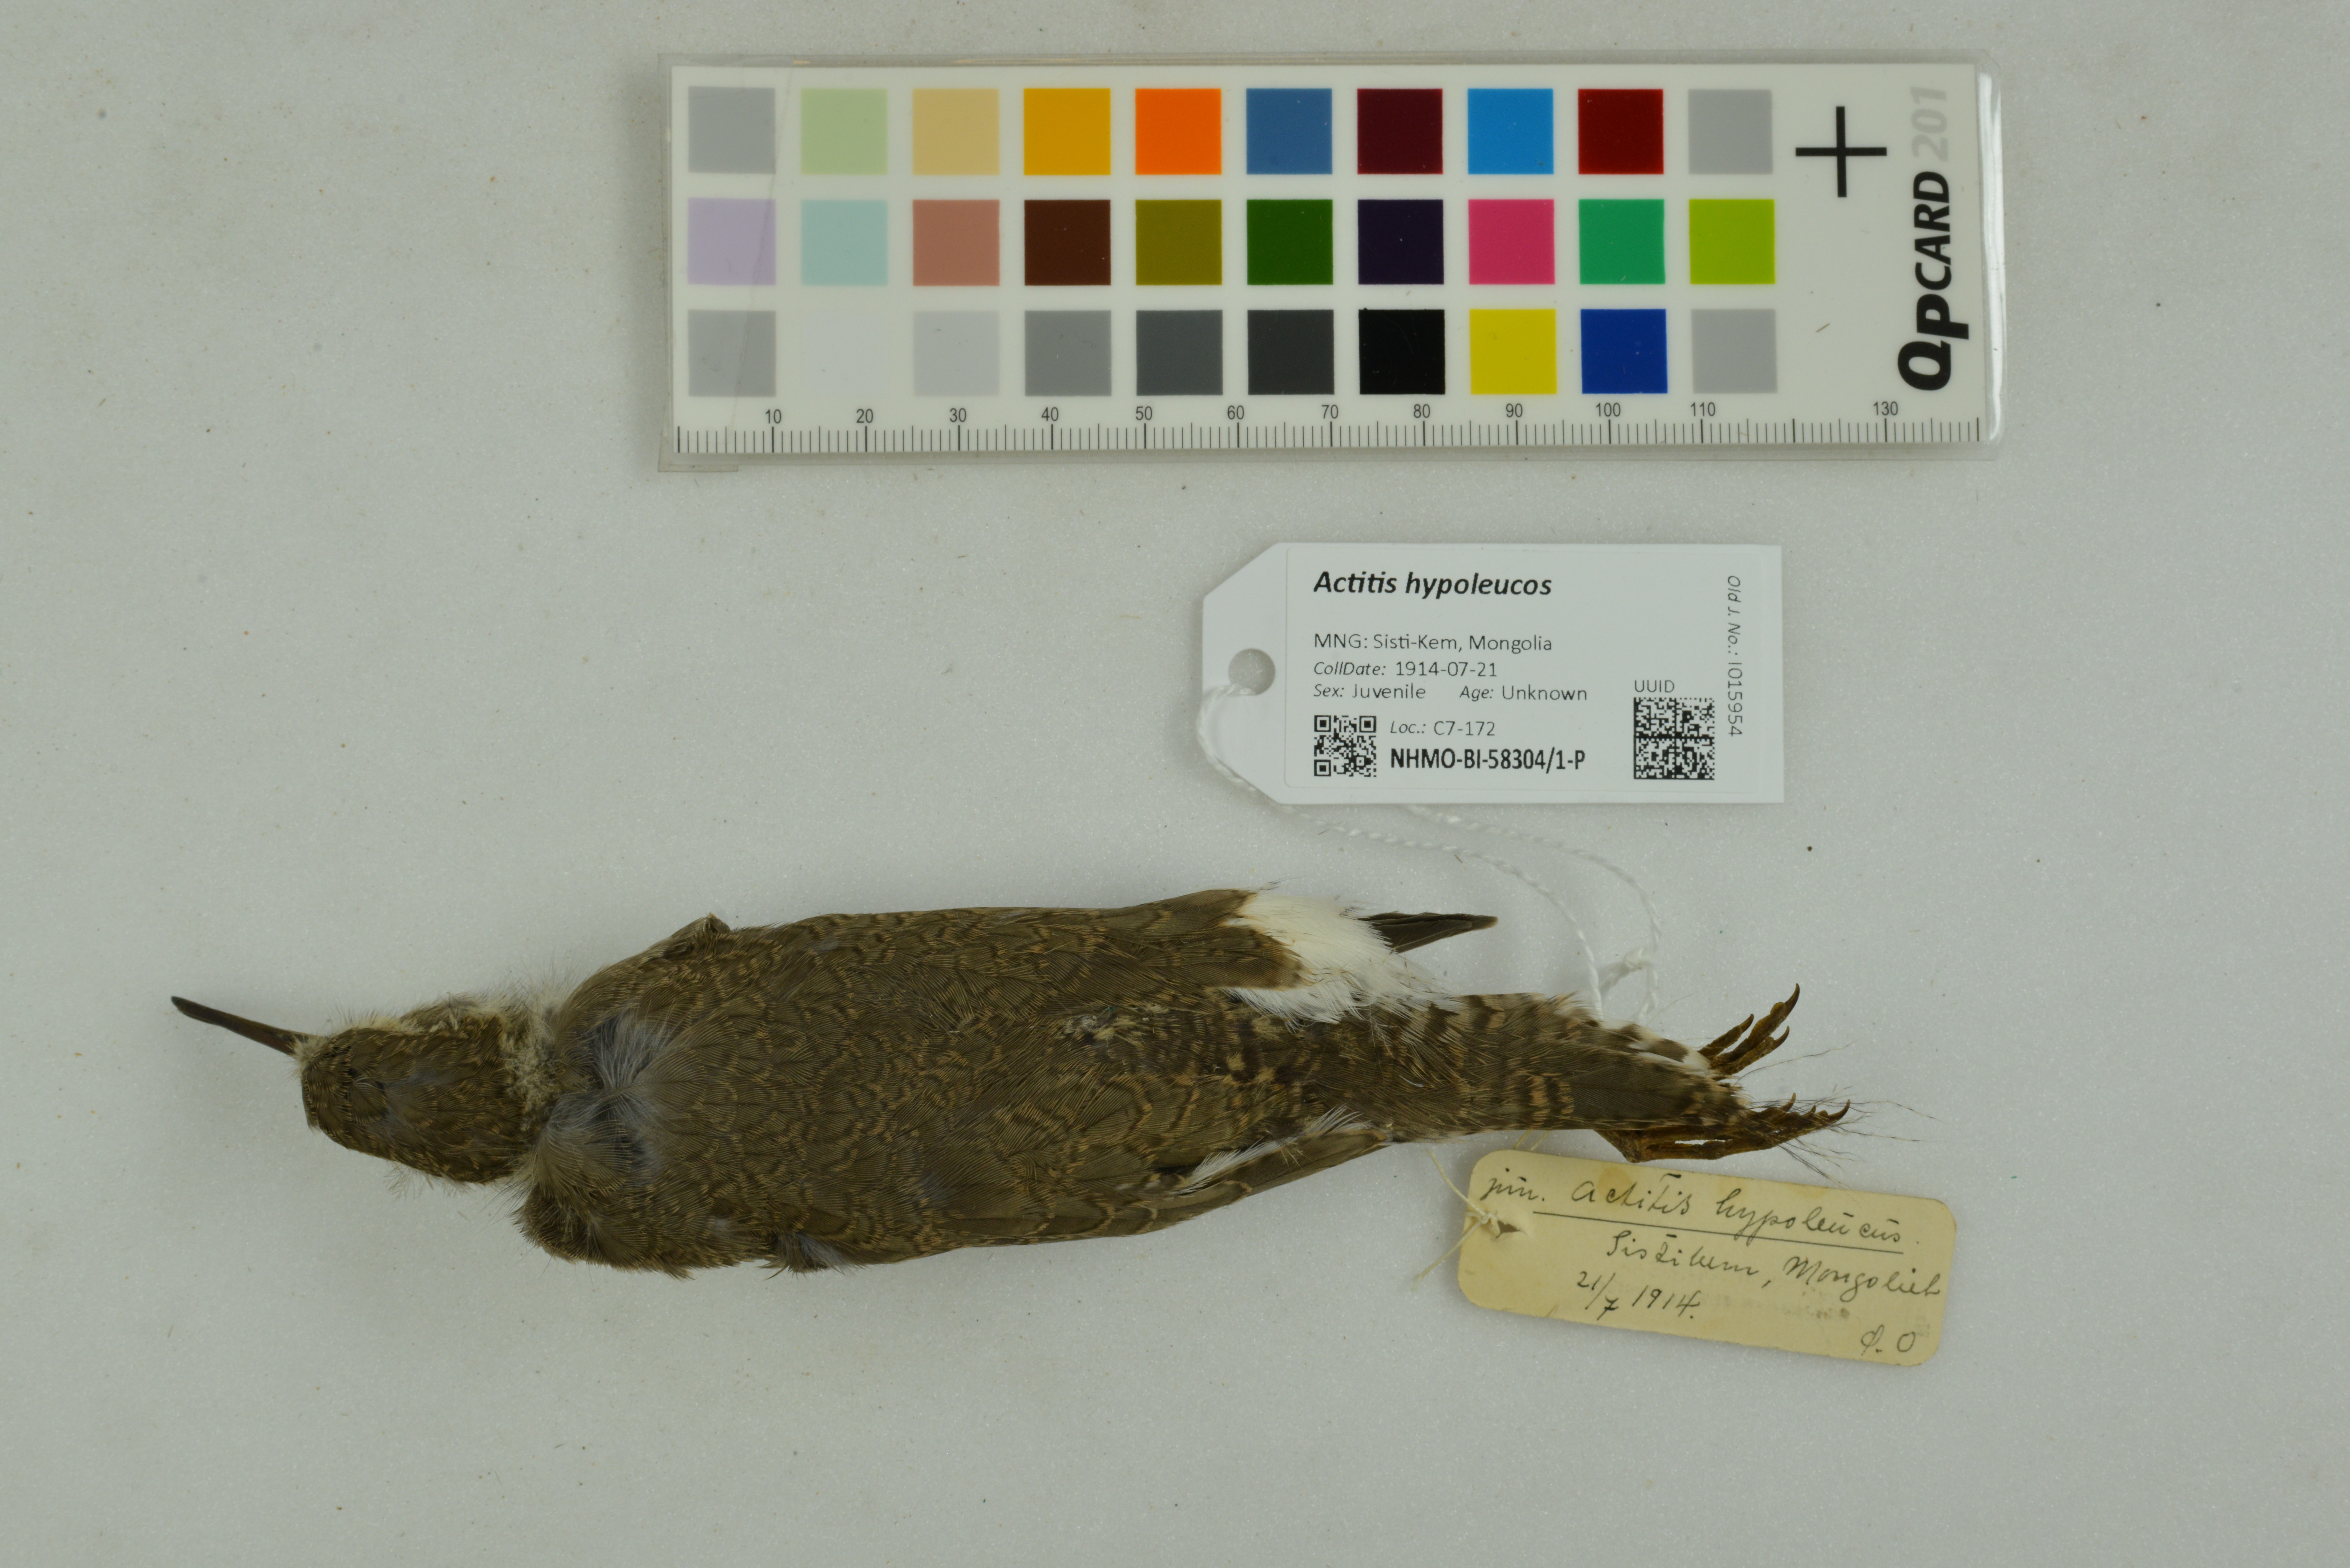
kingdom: Animalia
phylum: Chordata
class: Aves
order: Charadriiformes
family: Scolopacidae
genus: Actitis
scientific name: Actitis hypoleucos
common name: Common sandpiper
